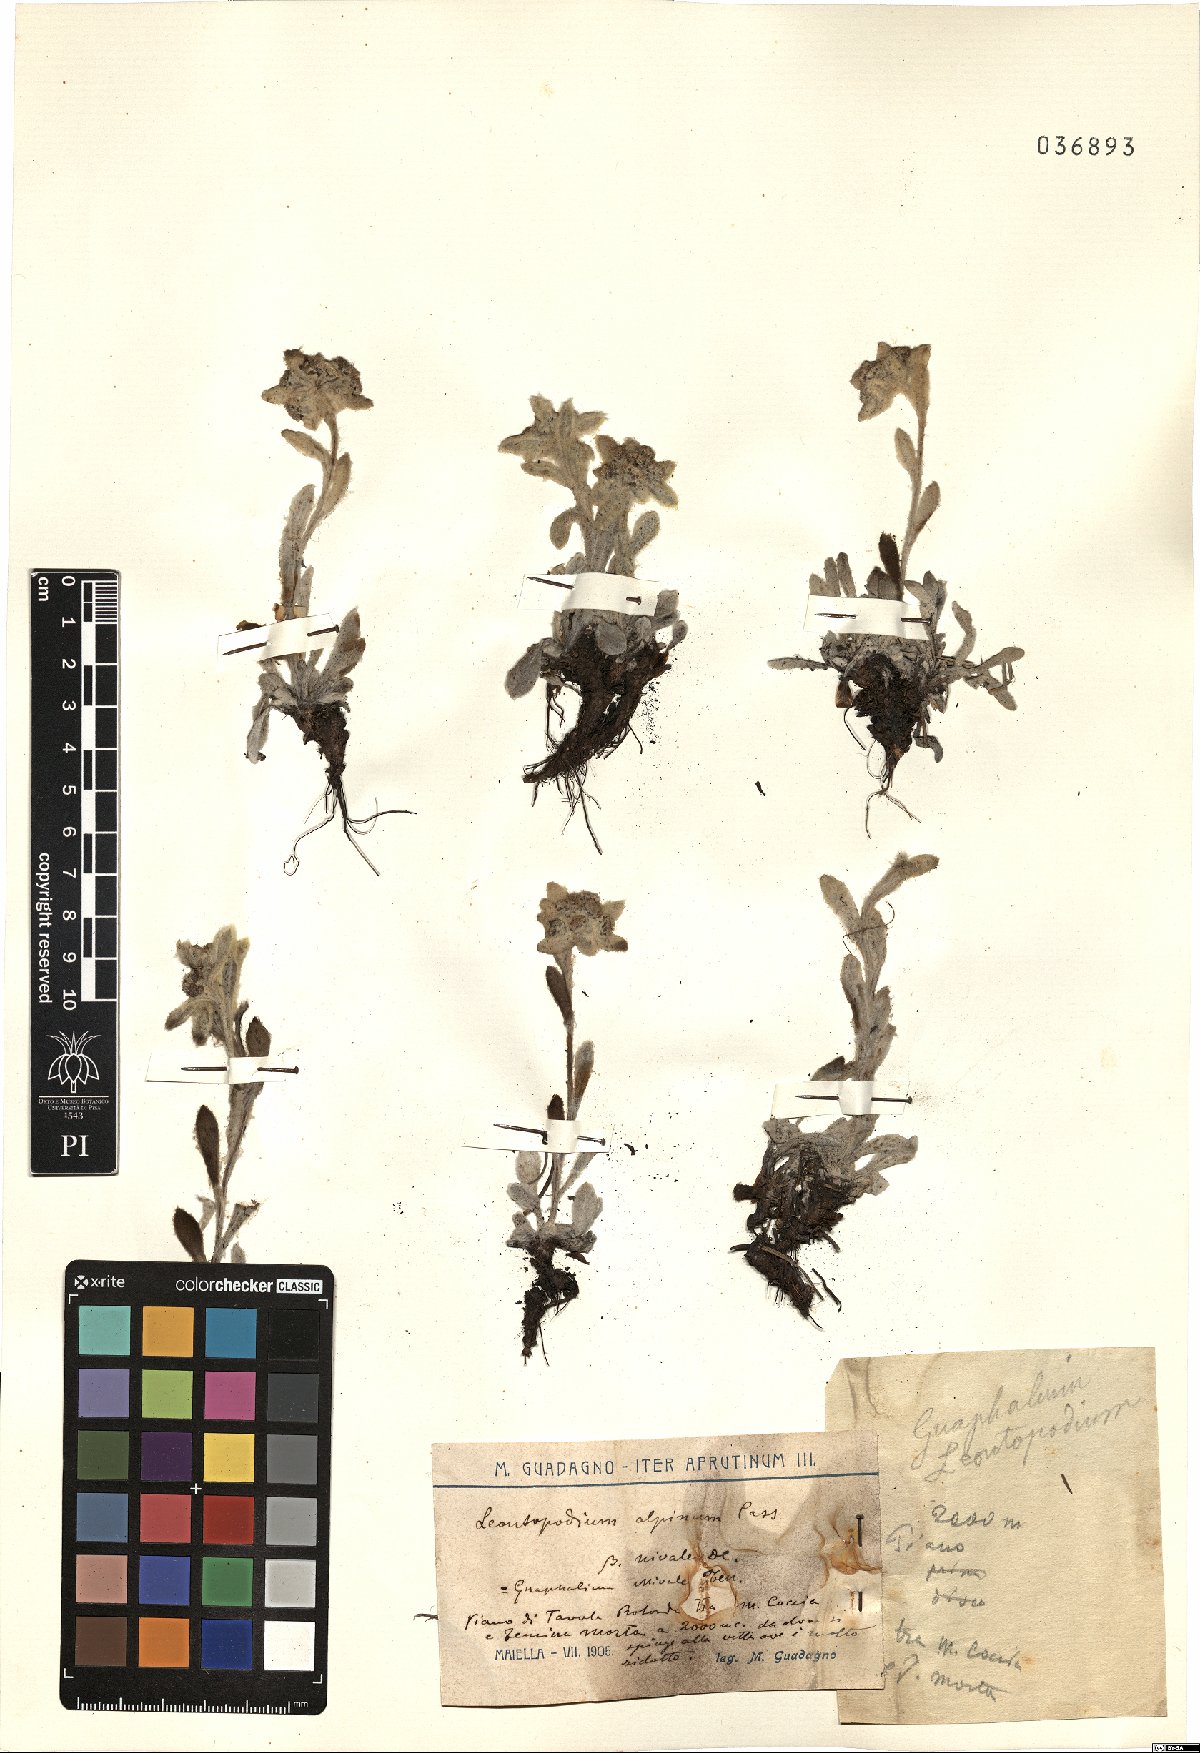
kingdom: Plantae
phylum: Tracheophyta
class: Magnoliopsida
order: Asterales
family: Asteraceae
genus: Leontopodium
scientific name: Leontopodium nivale
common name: Edelweiss
